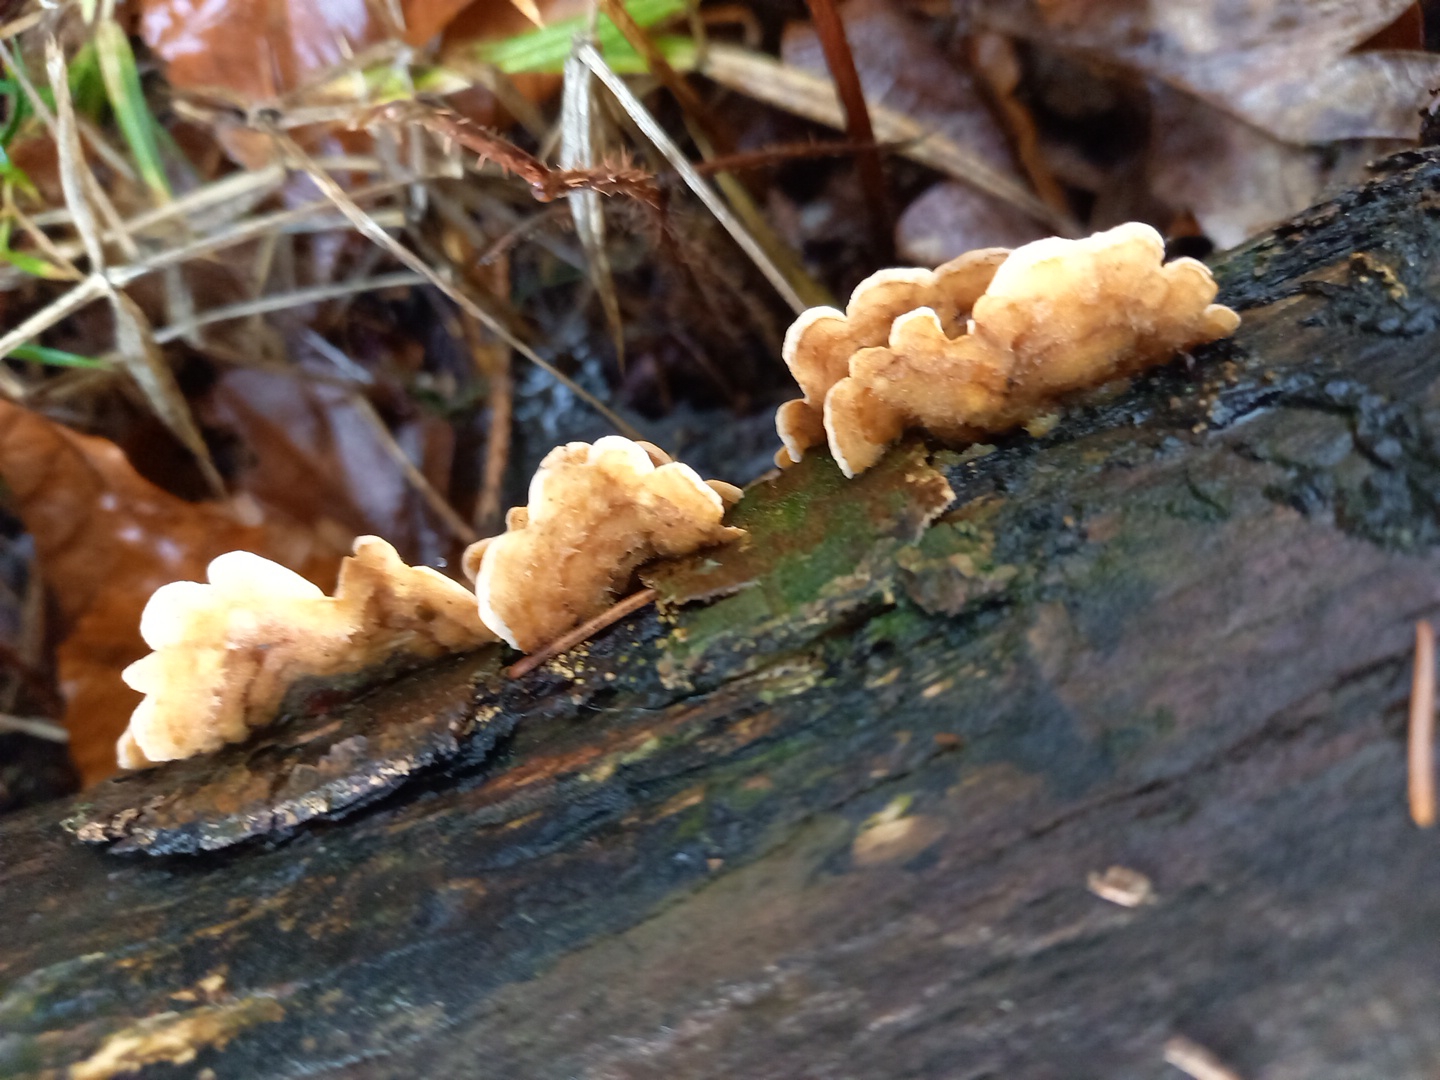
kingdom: Fungi
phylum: Basidiomycota
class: Agaricomycetes
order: Russulales
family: Stereaceae
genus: Stereum
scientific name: Stereum hirsutum
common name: håret lædersvamp
